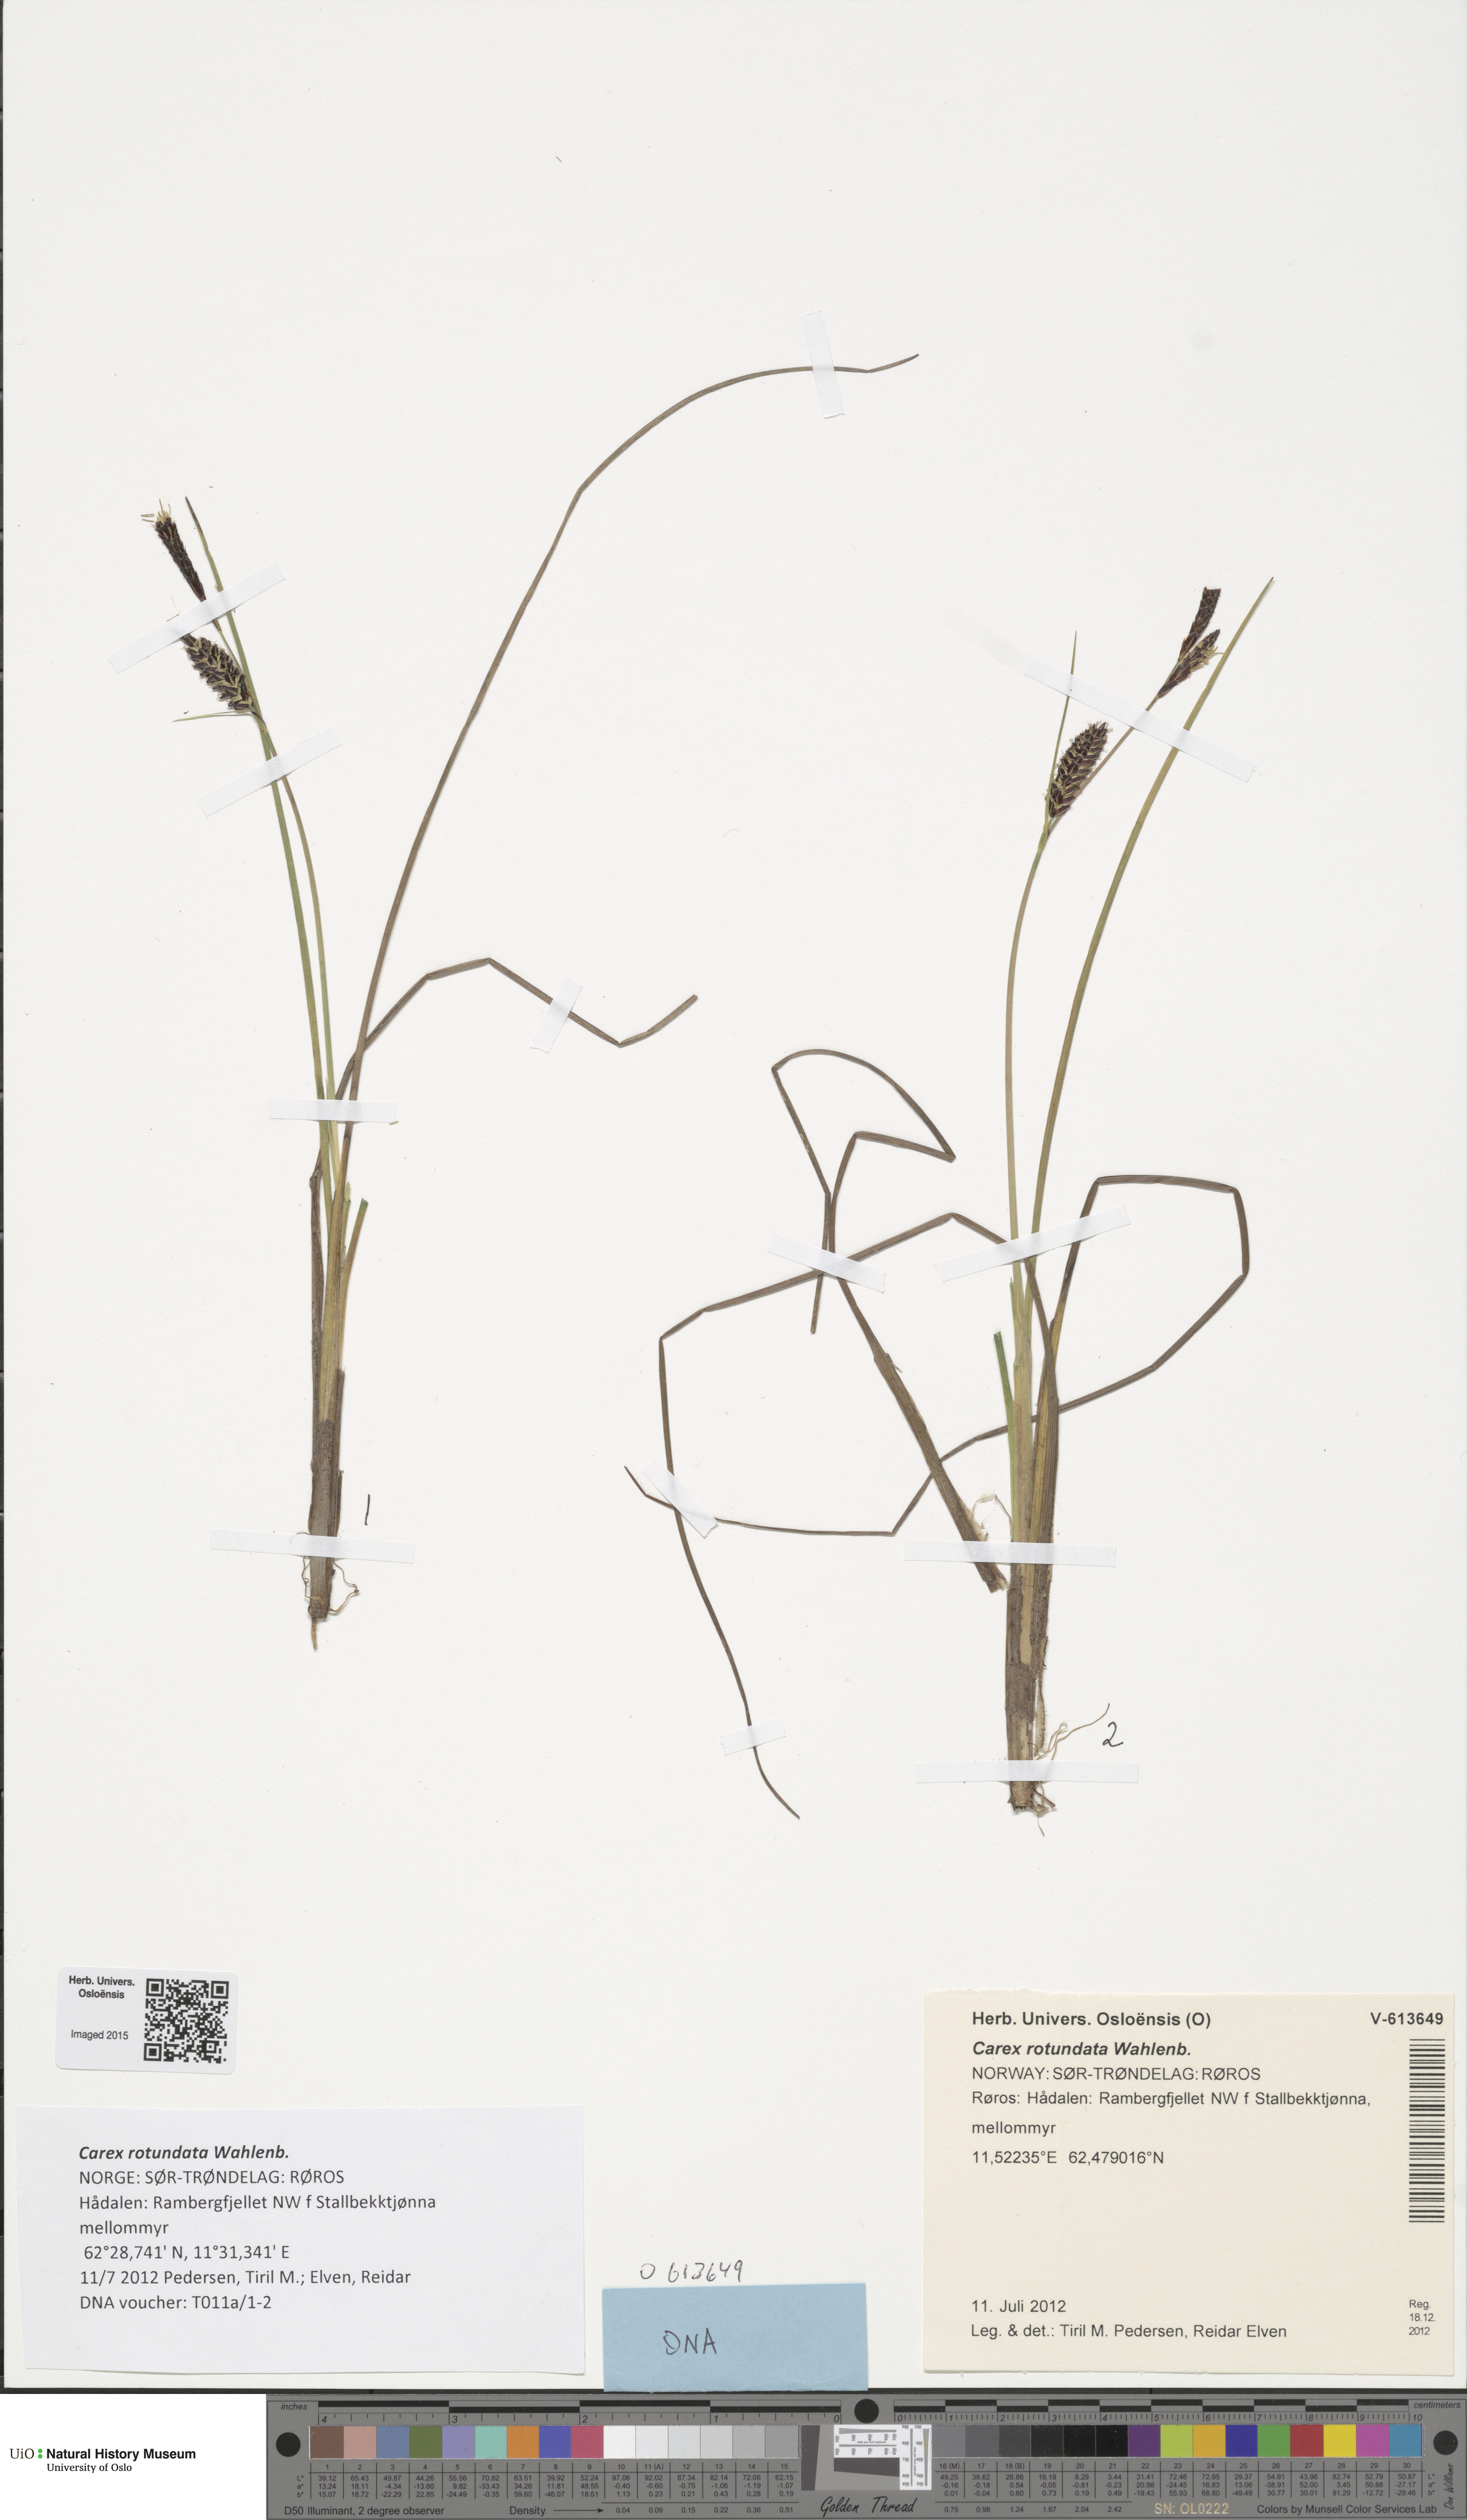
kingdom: Plantae
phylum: Tracheophyta
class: Liliopsida
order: Poales
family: Cyperaceae
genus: Carex
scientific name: Carex rotundata
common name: Round-fruited sedge
